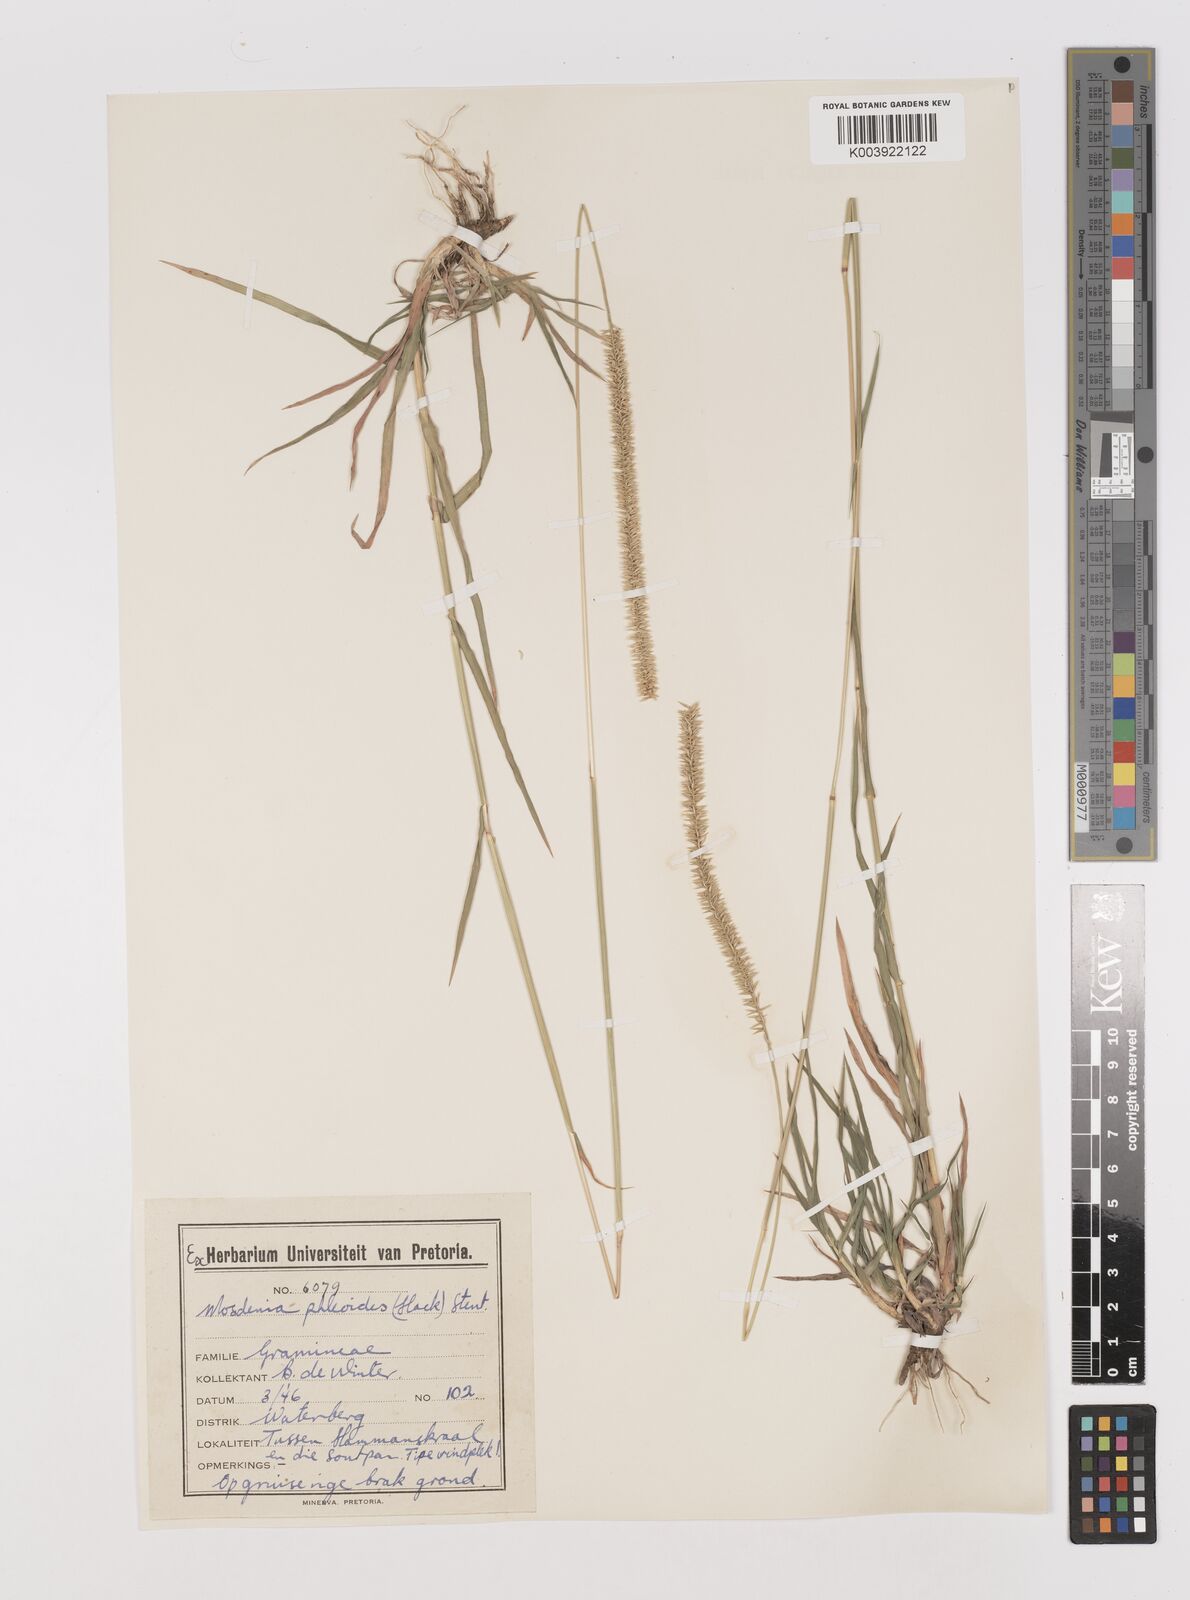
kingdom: Plantae
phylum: Tracheophyta
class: Liliopsida
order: Poales
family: Poaceae
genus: Mosdenia
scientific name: Mosdenia leptostachys
